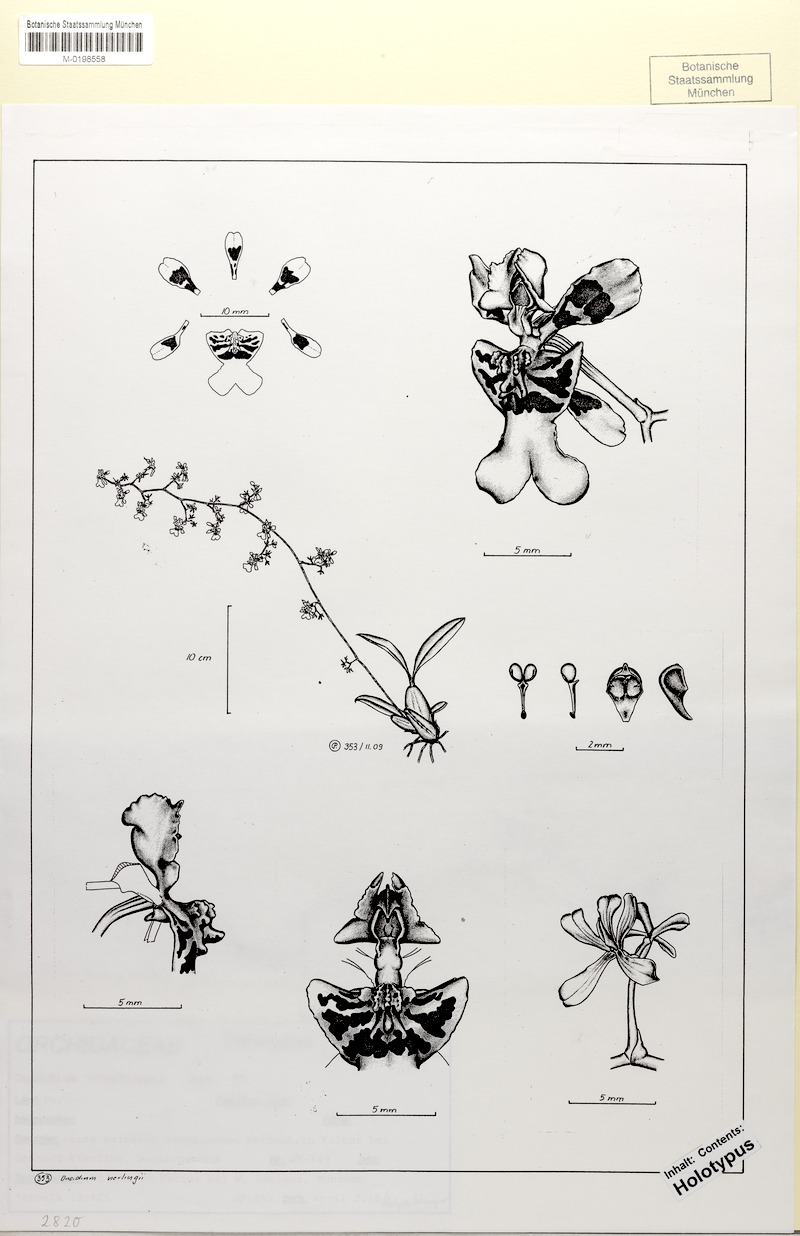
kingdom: Plantae
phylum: Tracheophyta
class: Liliopsida
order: Asparagales
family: Orchidaceae
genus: Oncidium
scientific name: Oncidium khoochongyeei
